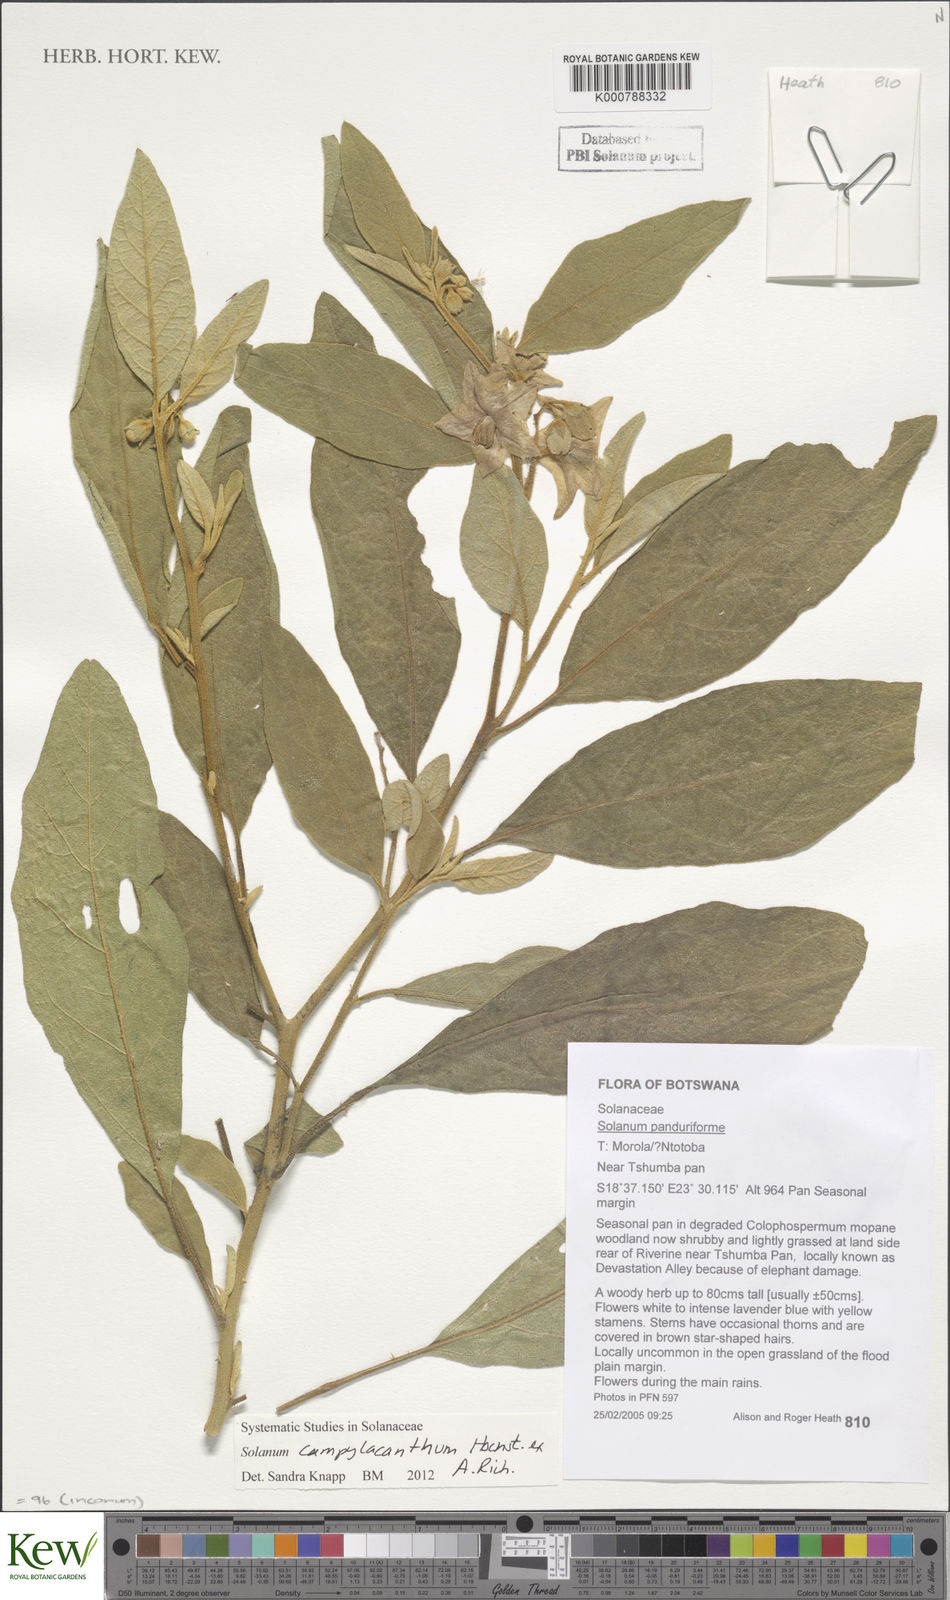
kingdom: Plantae
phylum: Tracheophyta
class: Magnoliopsida
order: Solanales
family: Solanaceae
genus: Solanum
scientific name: Solanum campylacanthum
